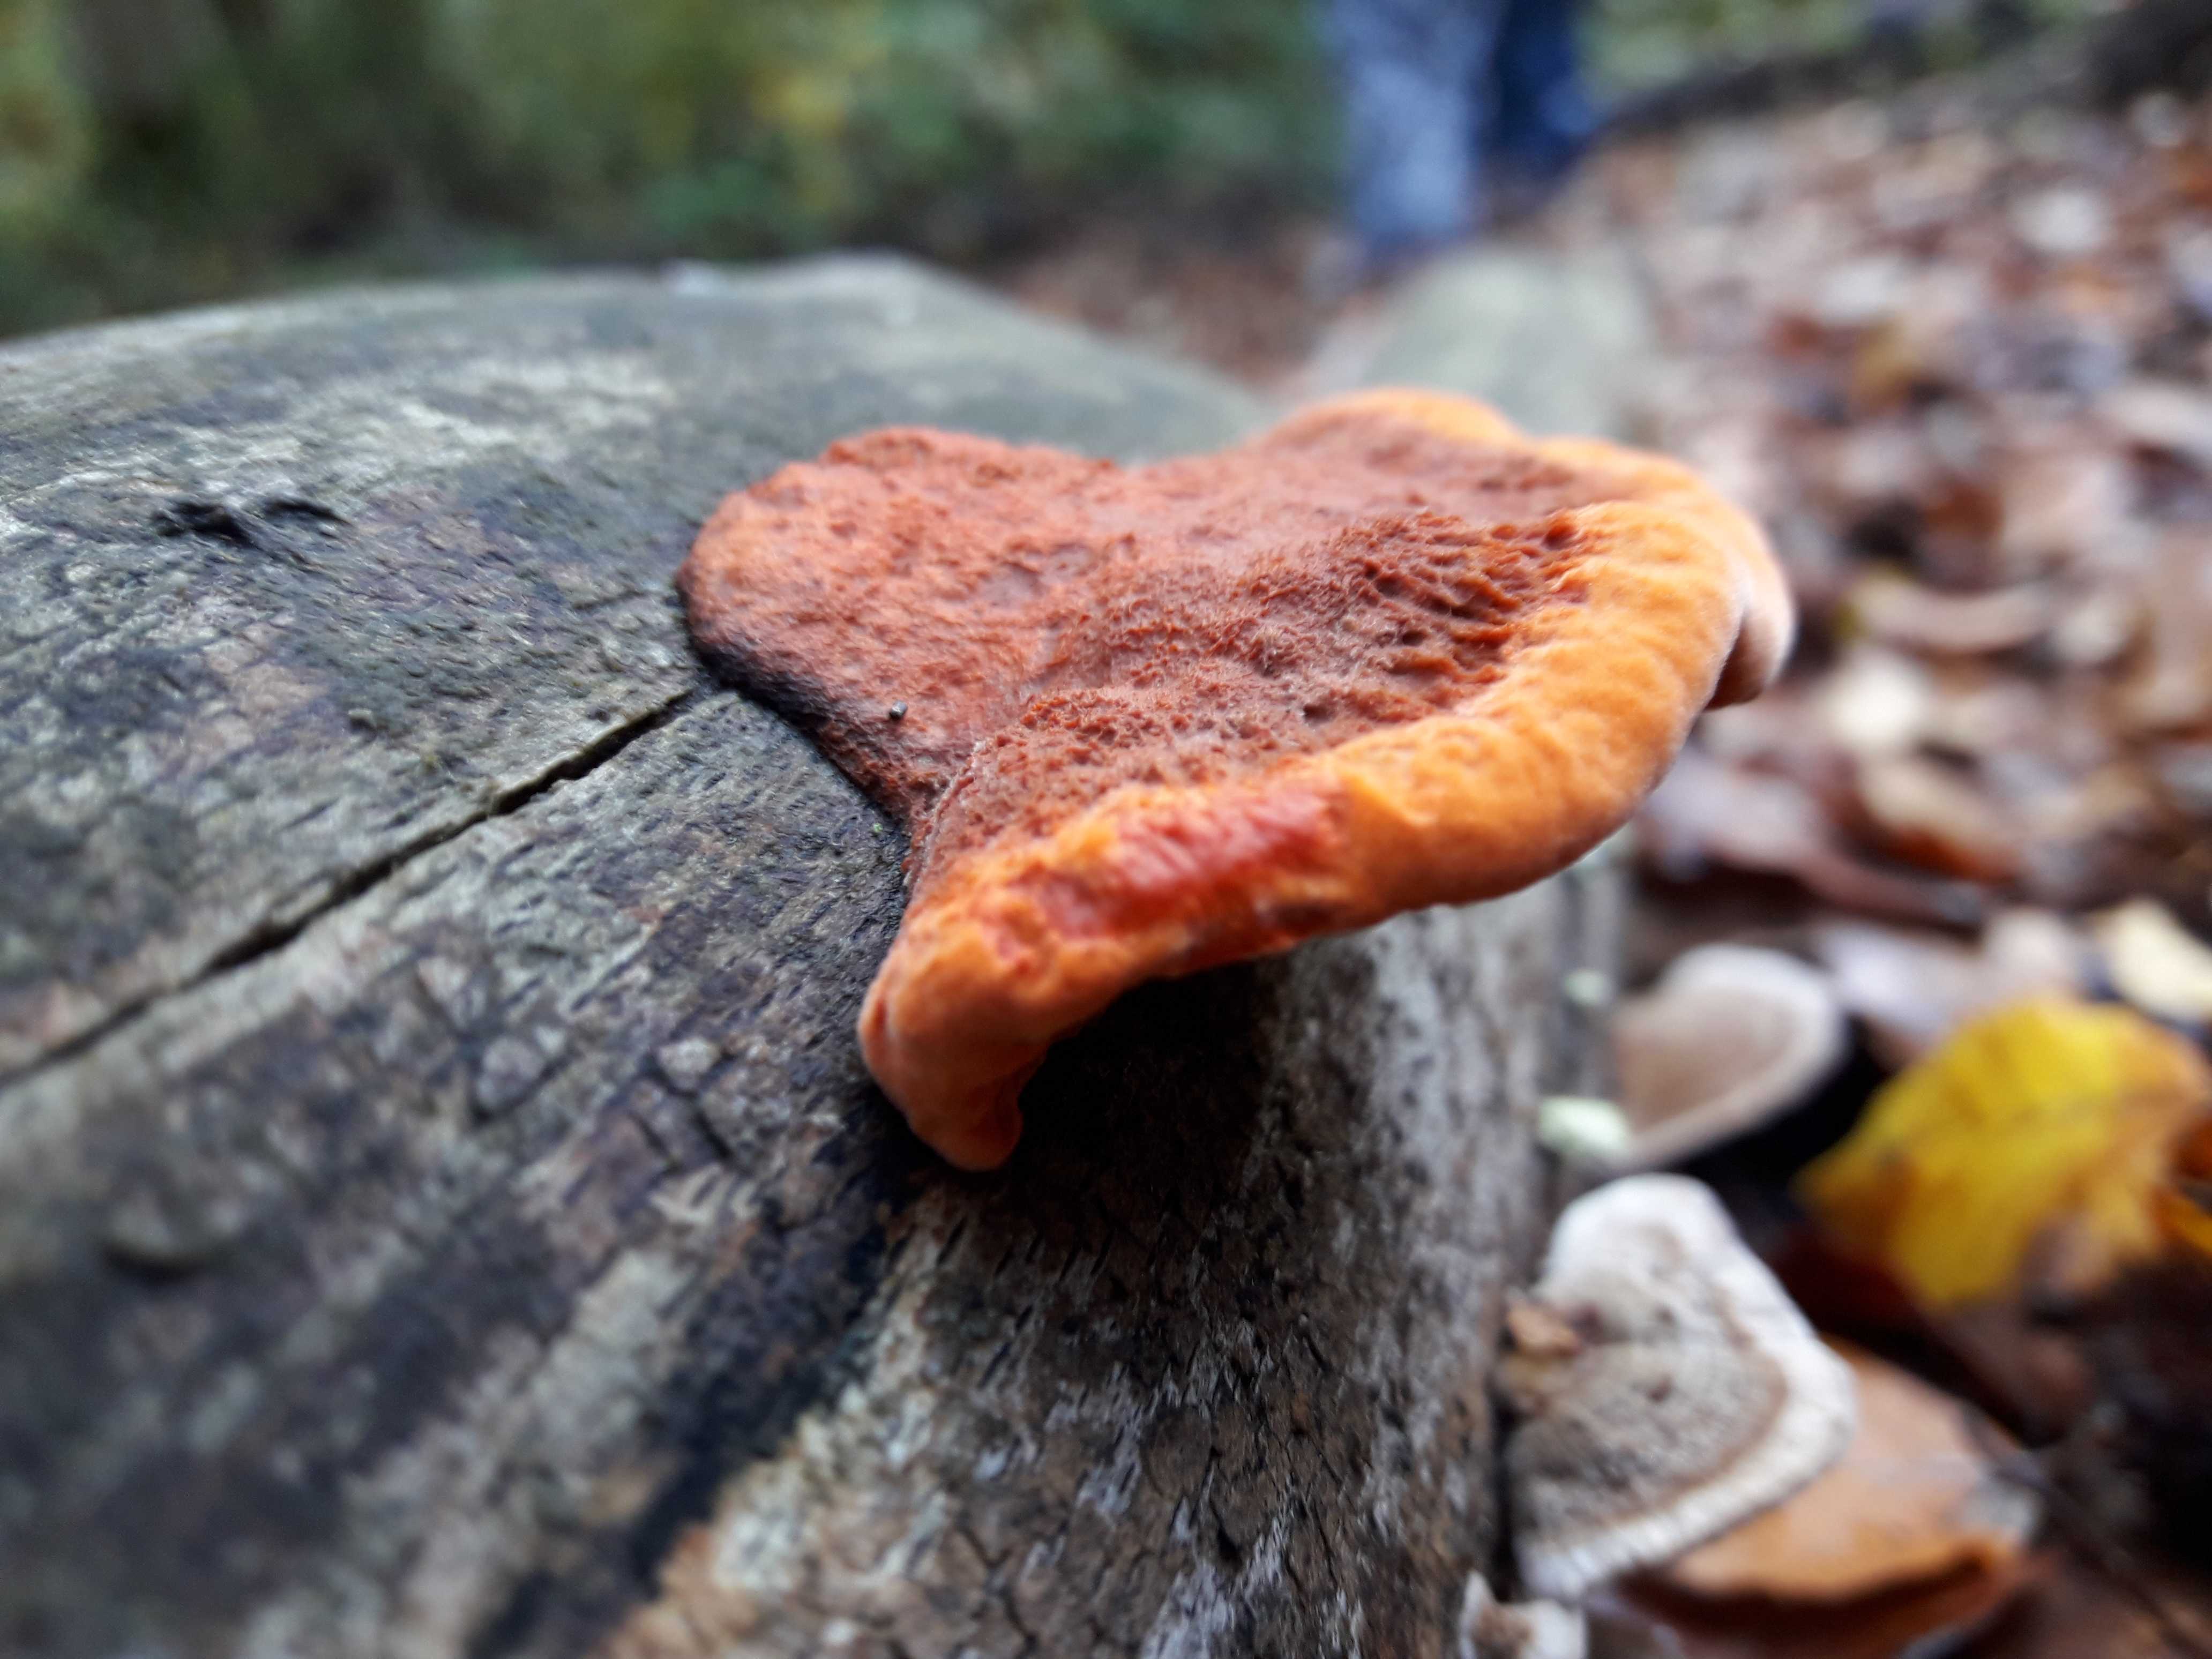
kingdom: Fungi
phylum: Basidiomycota
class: Agaricomycetes
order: Polyporales
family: Polyporaceae
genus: Trametes
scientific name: Trametes cinnabarina
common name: cinnoberporesvamp
